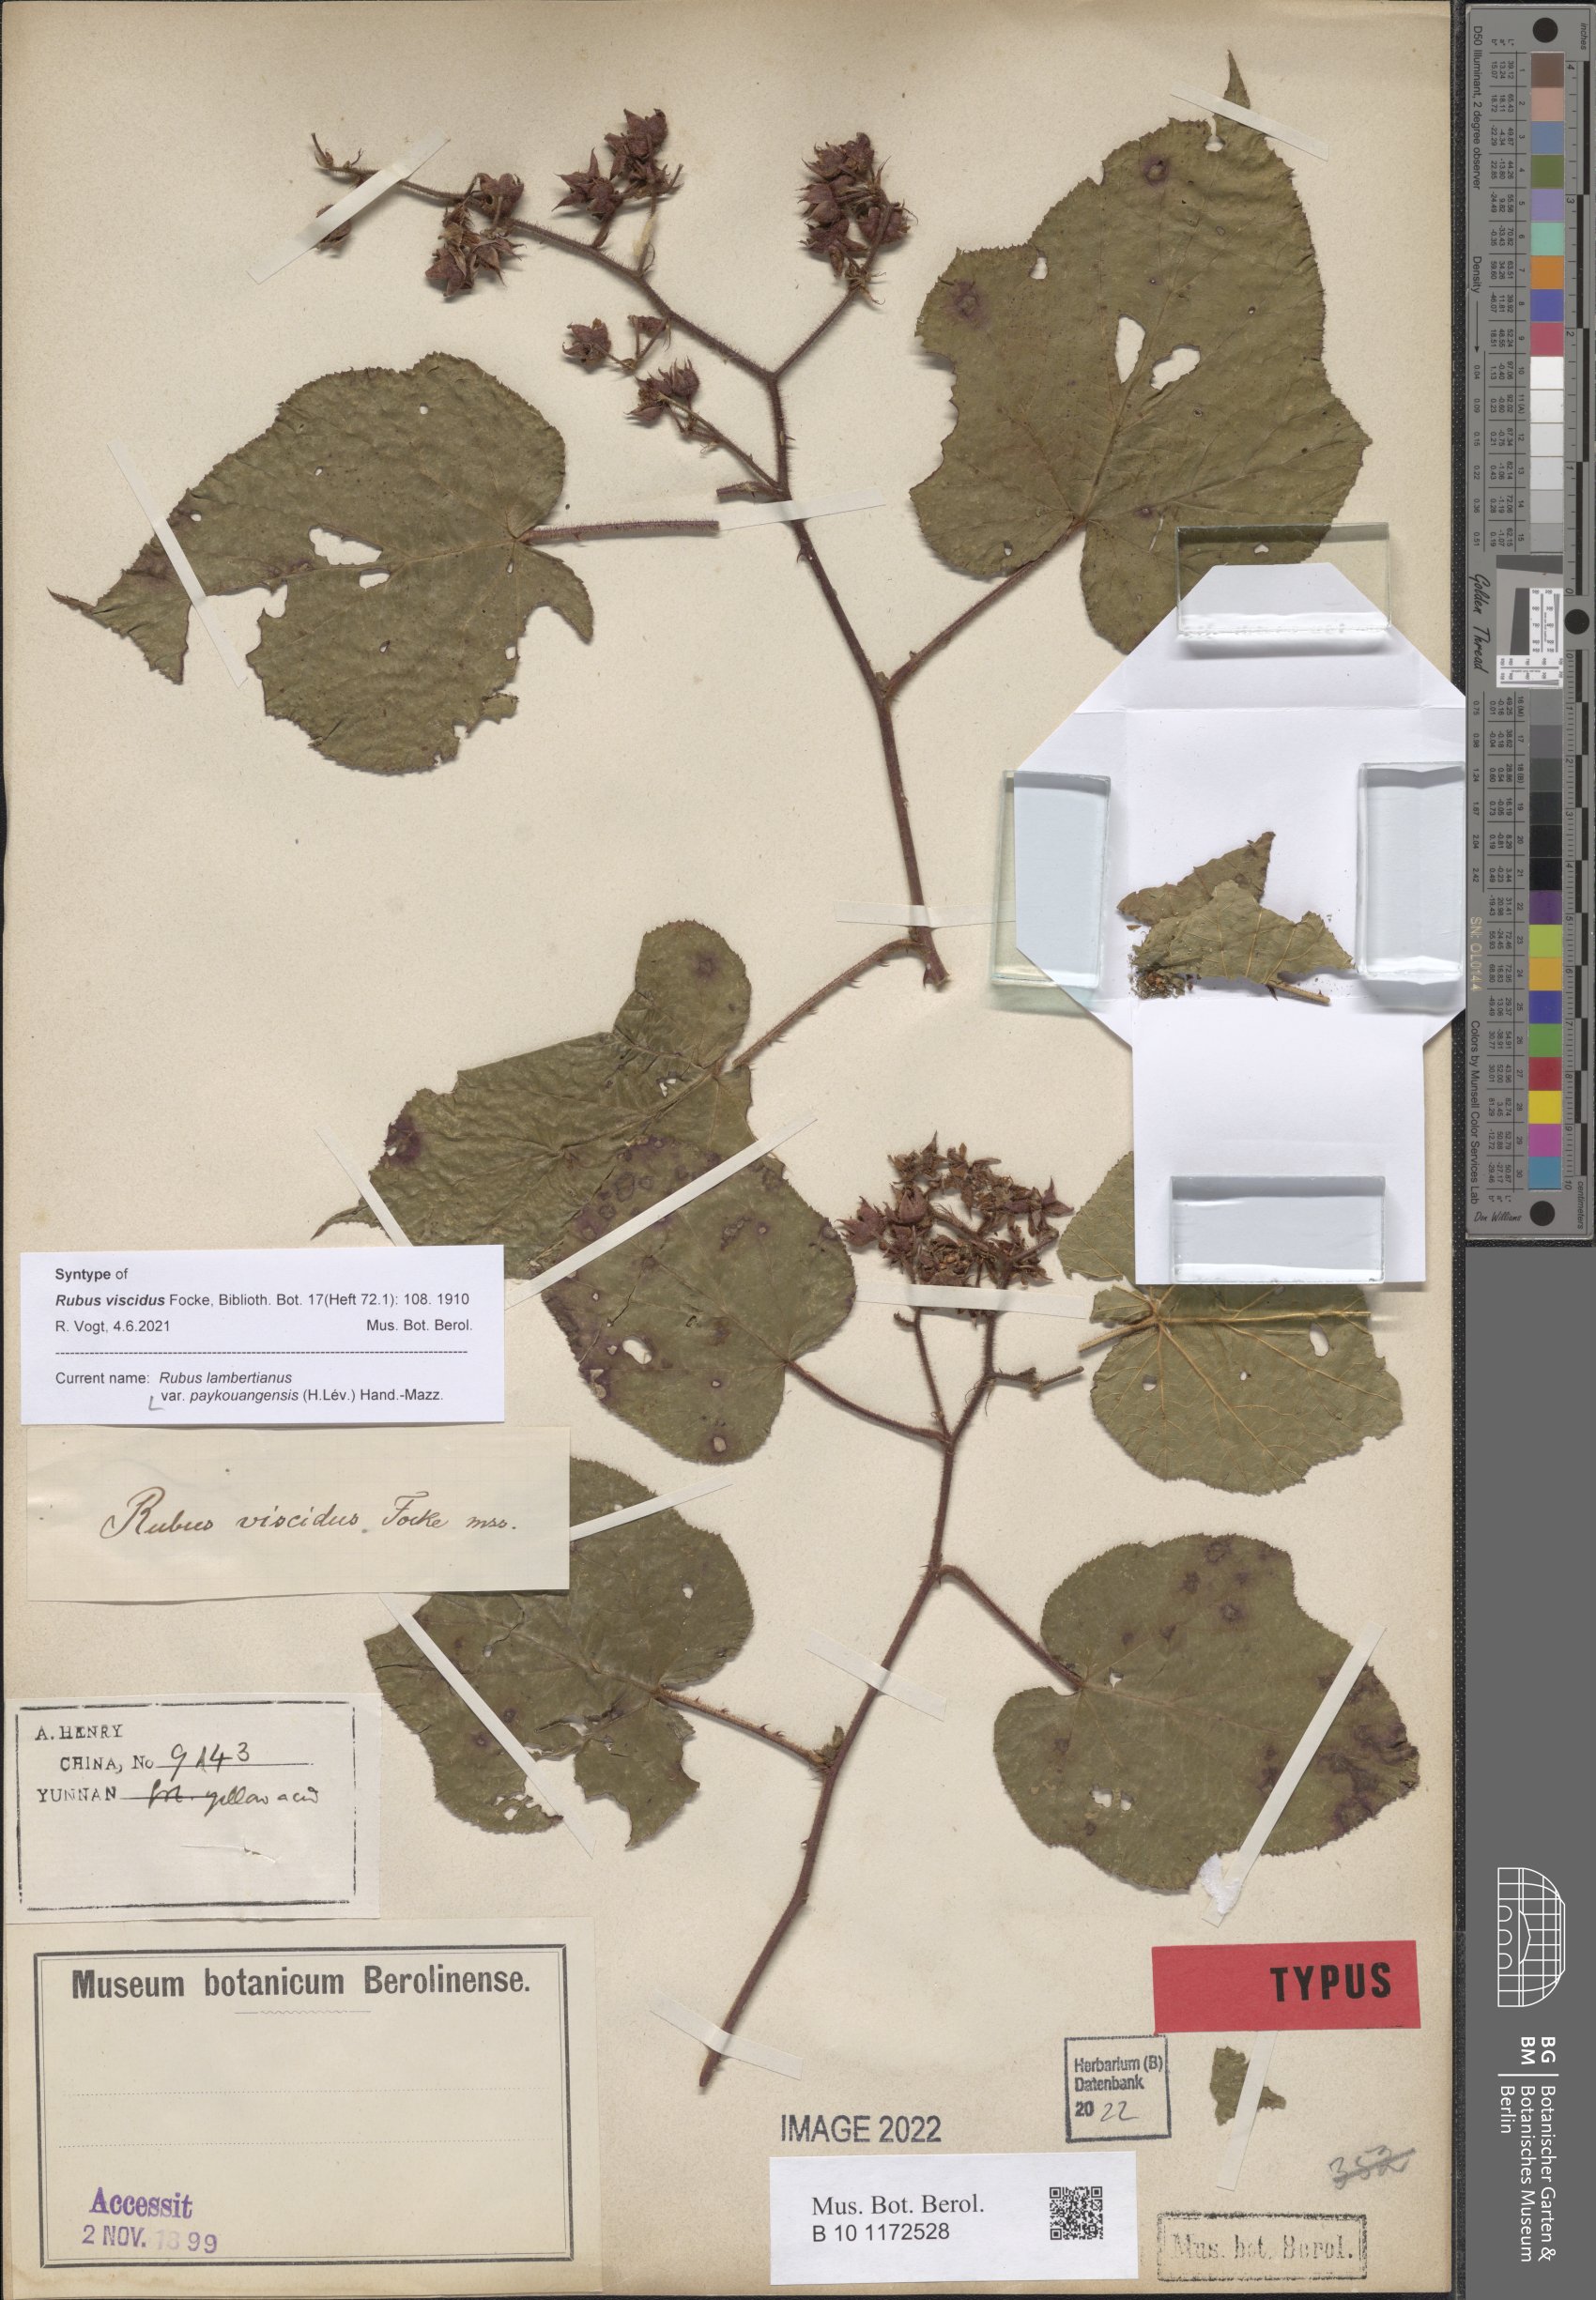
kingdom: Plantae
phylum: Tracheophyta
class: Magnoliopsida
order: Rosales
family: Rosaceae
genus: Rubus
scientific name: Rubus lambertianus
